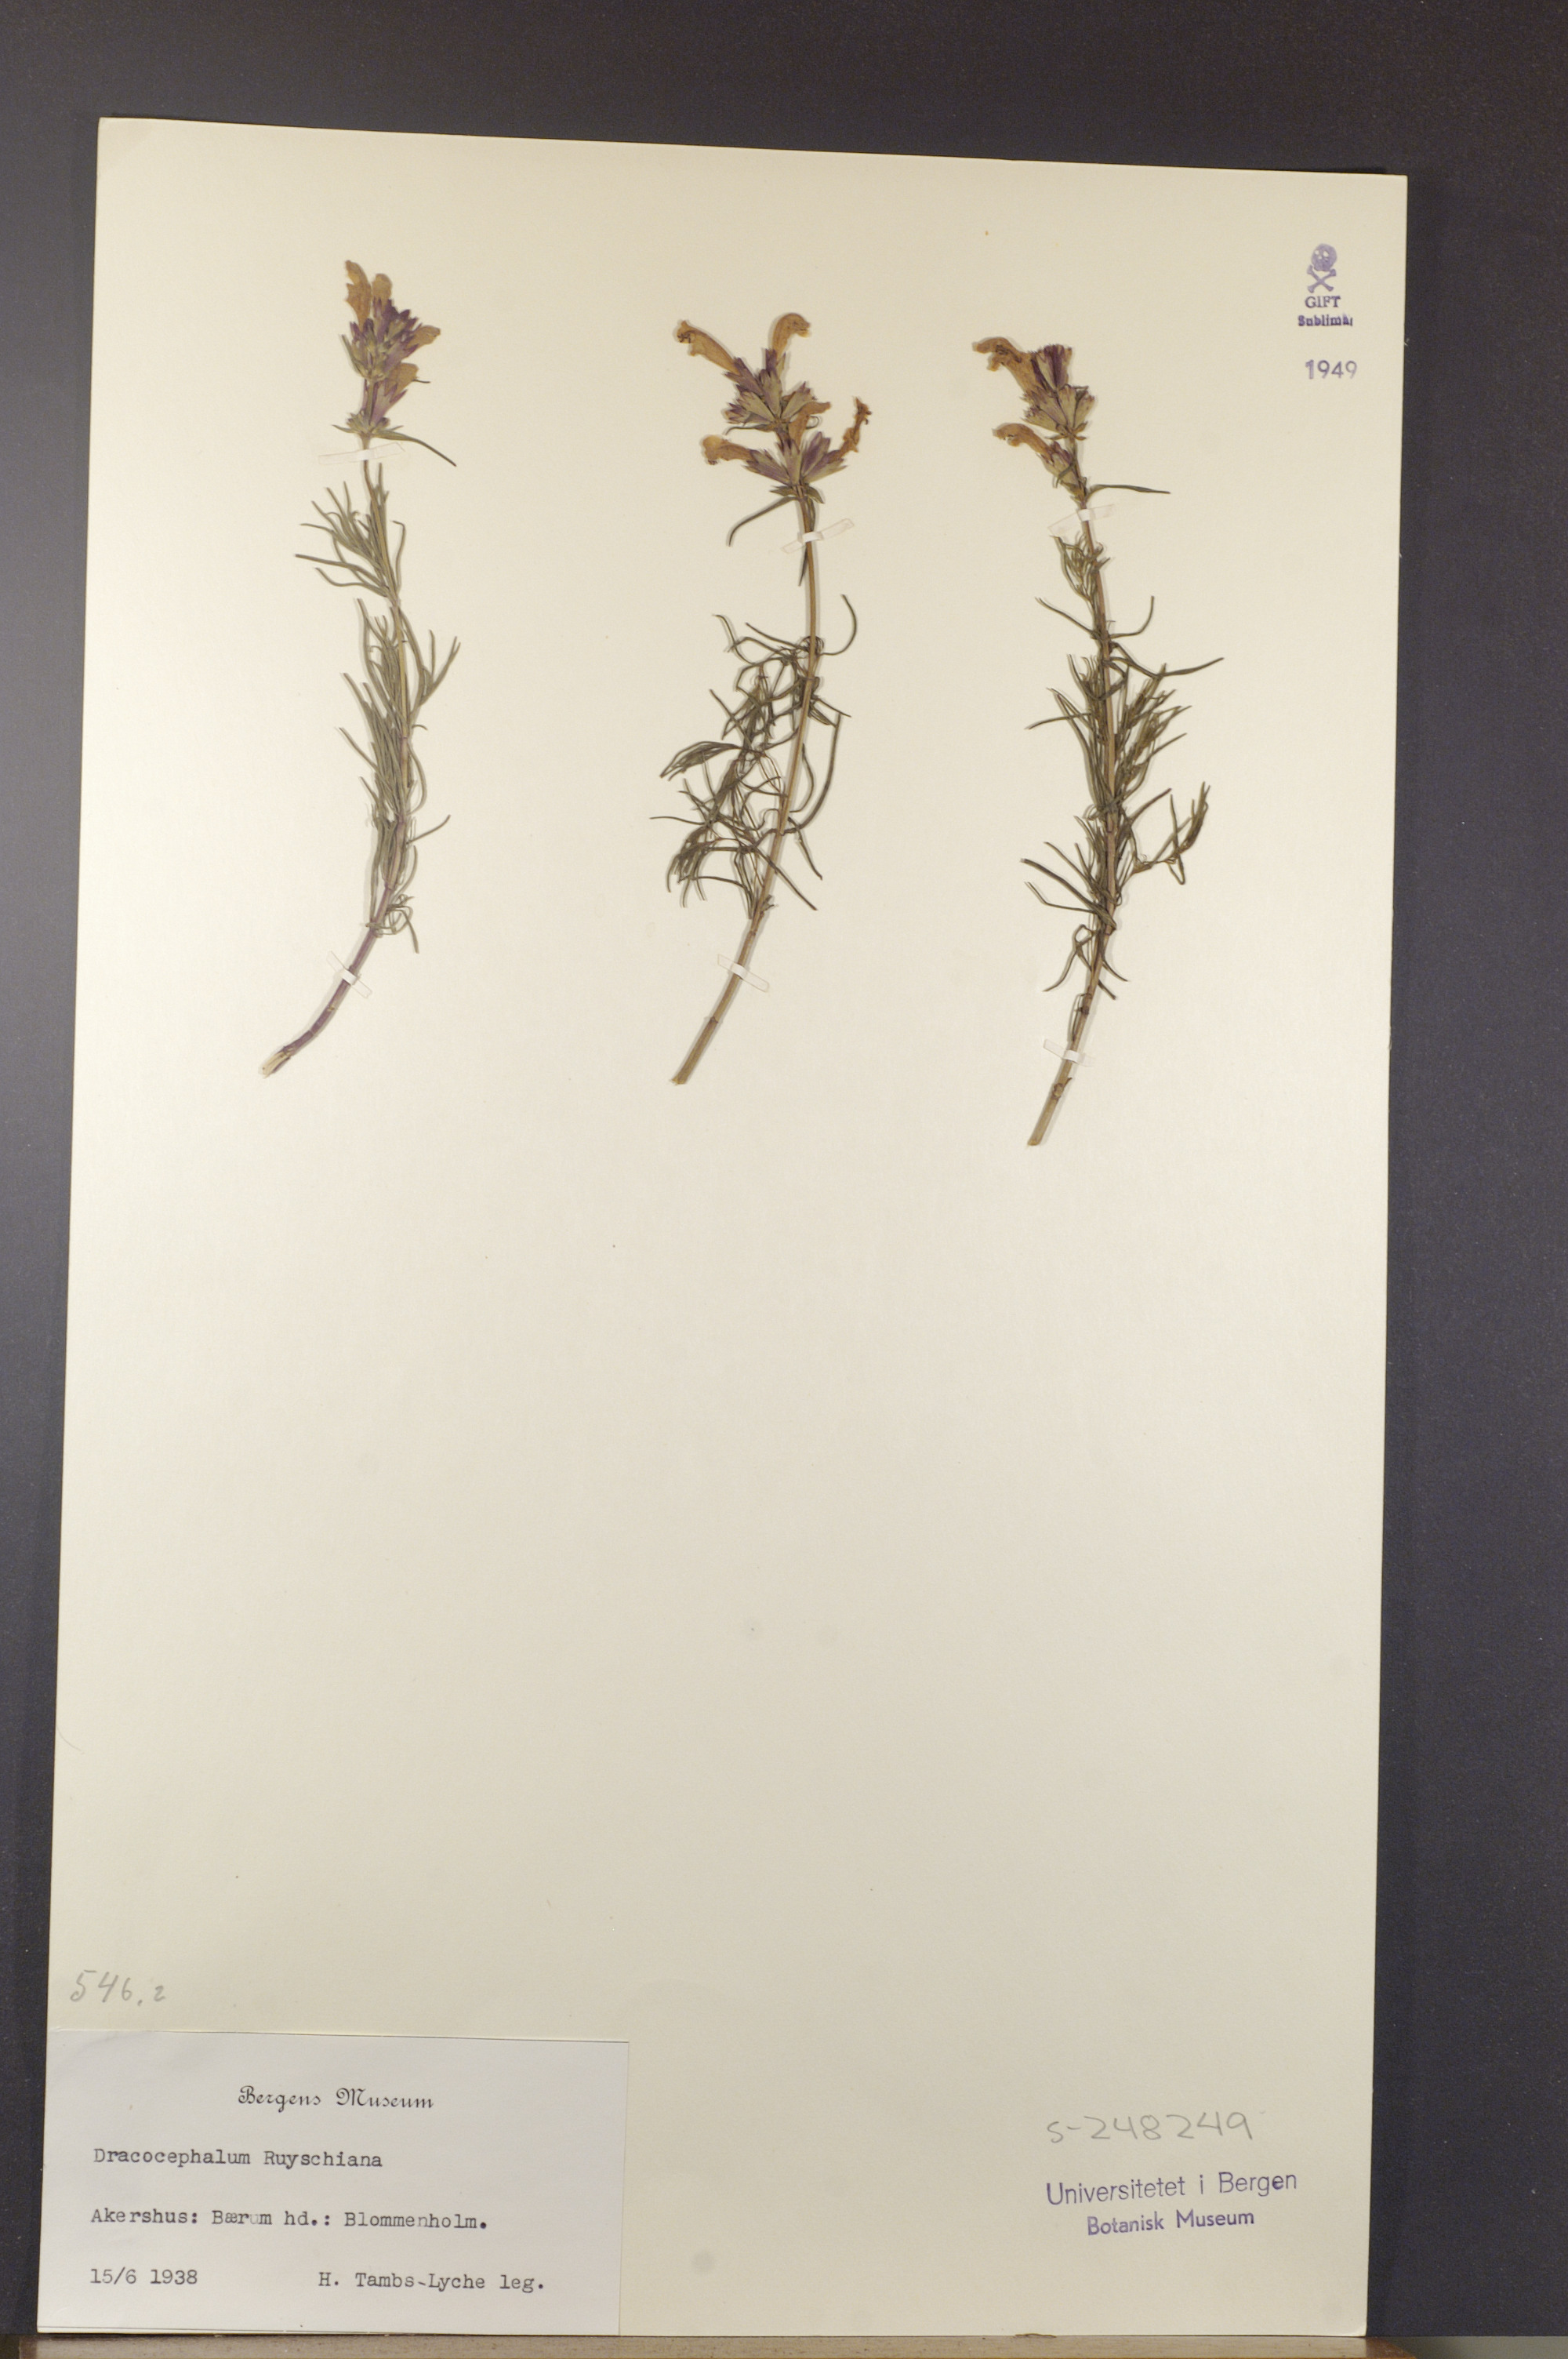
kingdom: Plantae
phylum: Tracheophyta
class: Magnoliopsida
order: Lamiales
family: Lamiaceae
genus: Dracocephalum
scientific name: Dracocephalum ruyschiana
